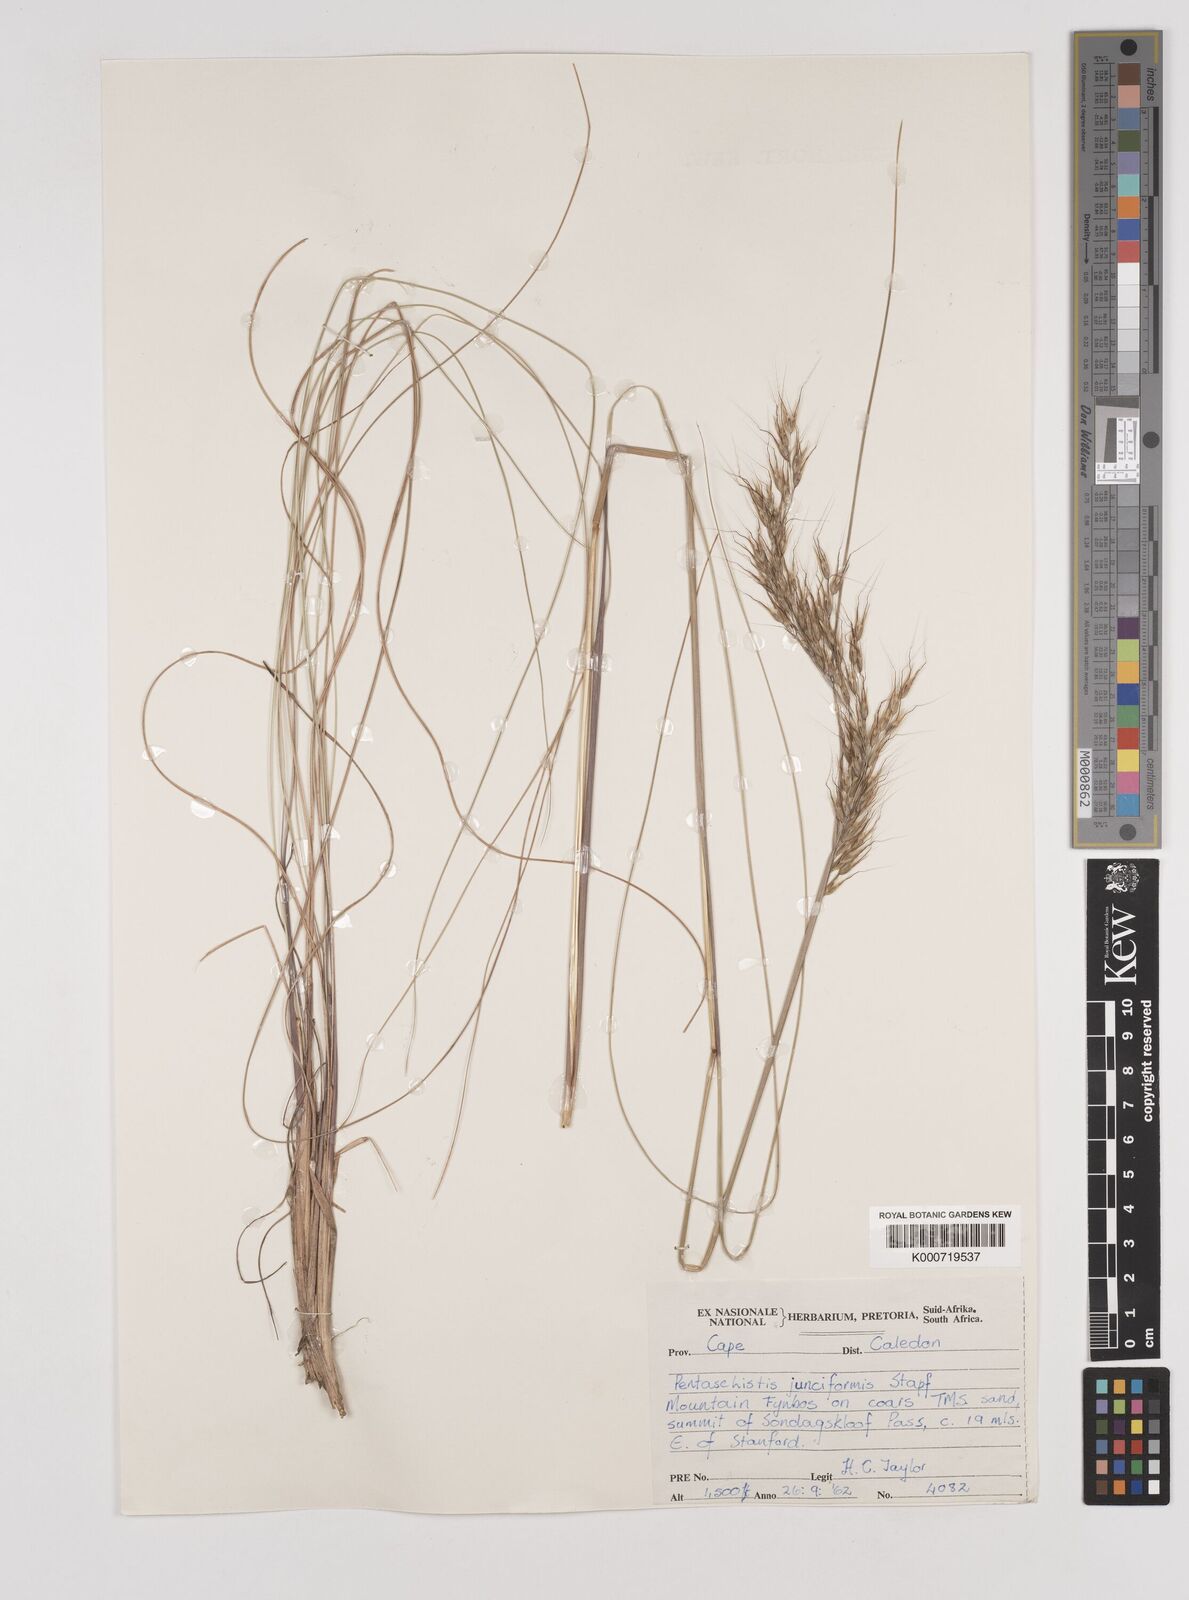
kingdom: Plantae
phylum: Tracheophyta
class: Liliopsida
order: Poales
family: Poaceae
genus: Pentameris
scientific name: Pentameris tortuosa
